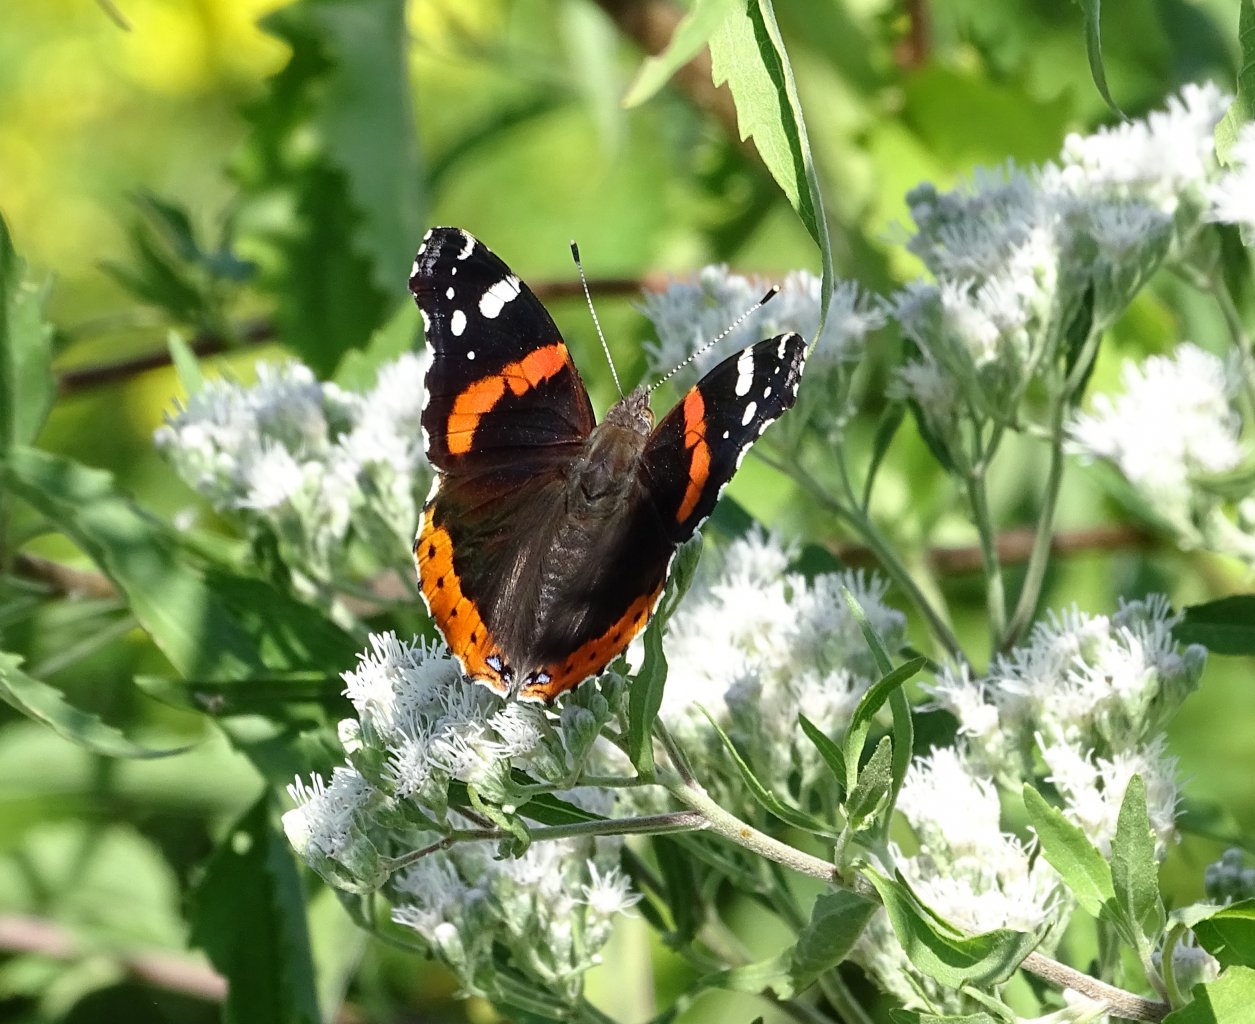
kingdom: Animalia
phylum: Arthropoda
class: Insecta
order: Lepidoptera
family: Nymphalidae
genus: Vanessa
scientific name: Vanessa atalanta
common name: Red Admiral
